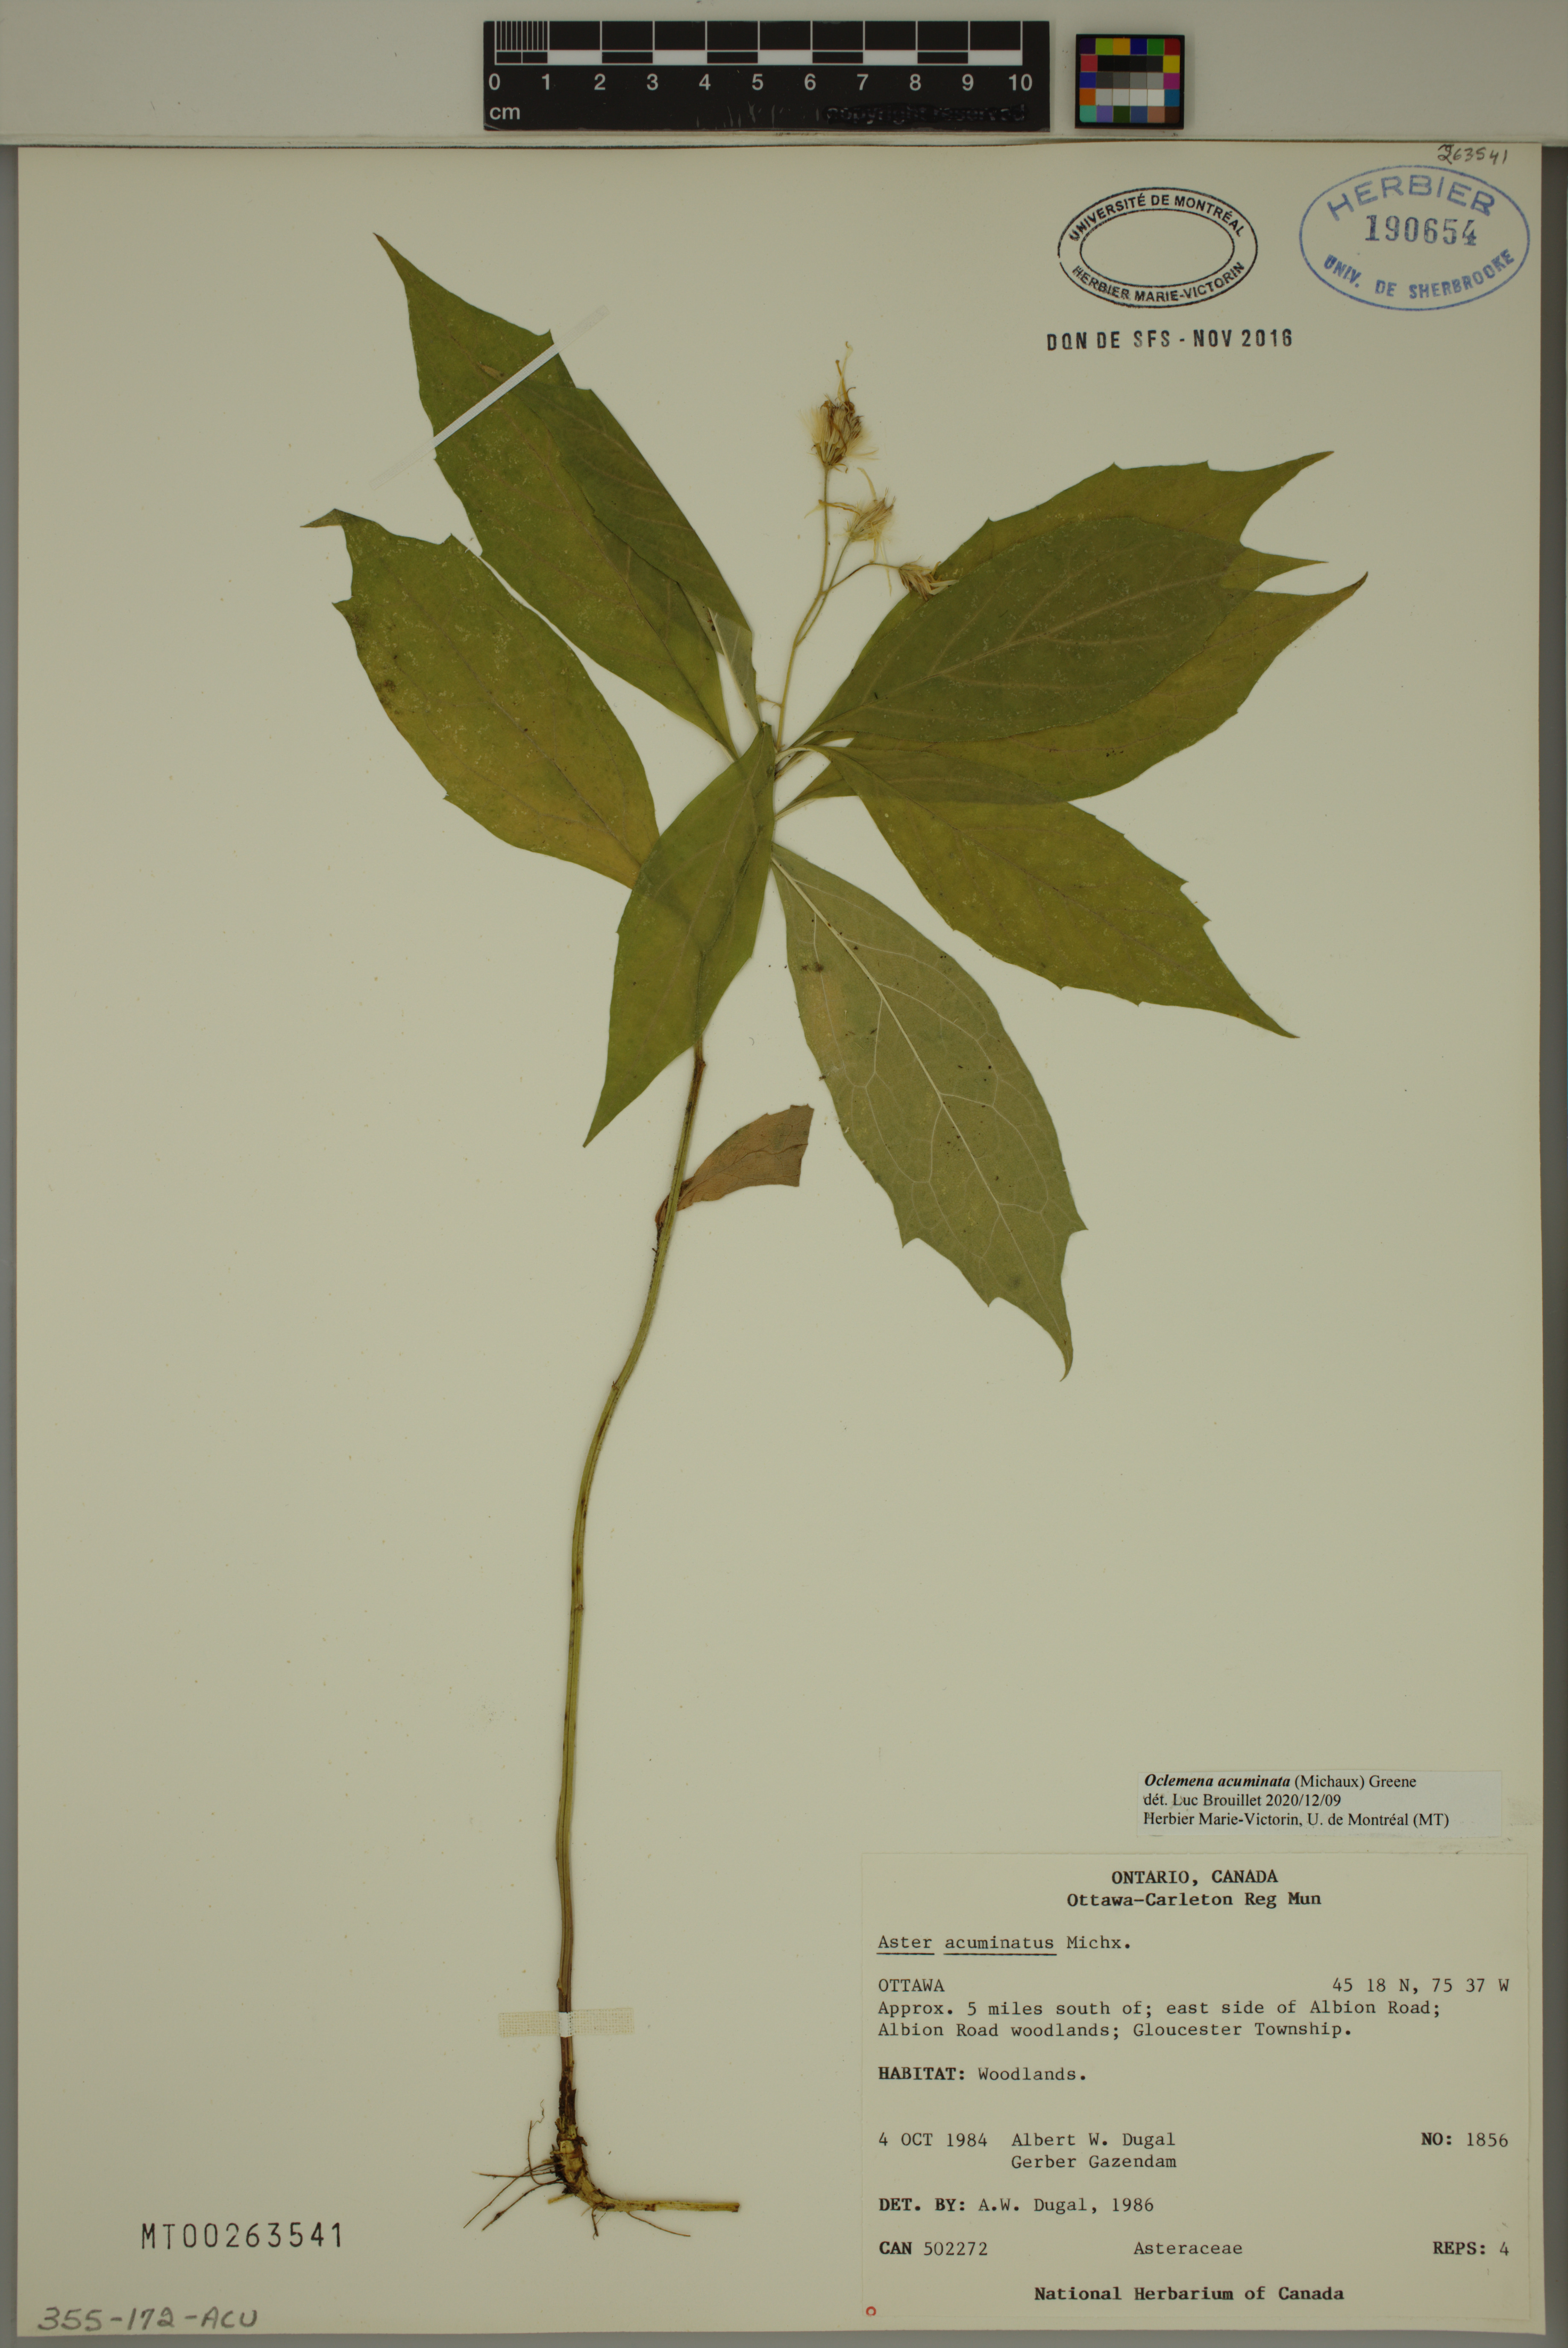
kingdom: Plantae
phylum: Tracheophyta
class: Magnoliopsida
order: Asterales
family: Asteraceae
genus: Oclemena
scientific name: Oclemena acuminata
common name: Mountain aster
